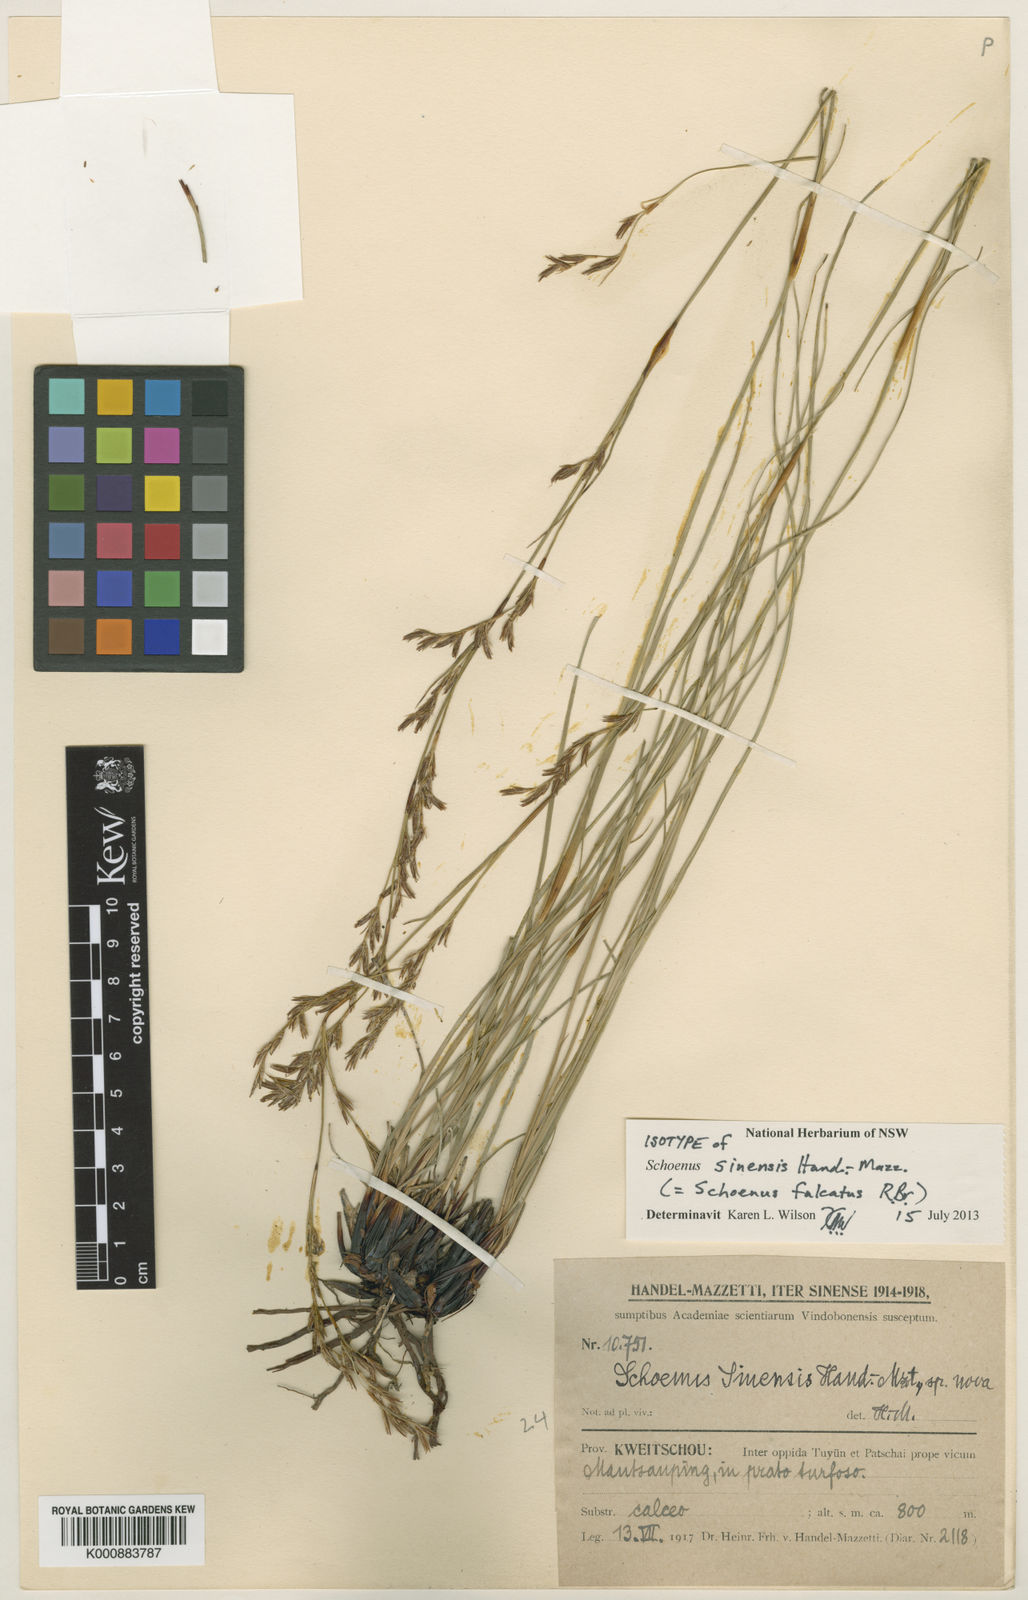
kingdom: Plantae
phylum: Tracheophyta
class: Liliopsida
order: Poales
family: Cyperaceae
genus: Schoenus
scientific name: Schoenus falcatus
